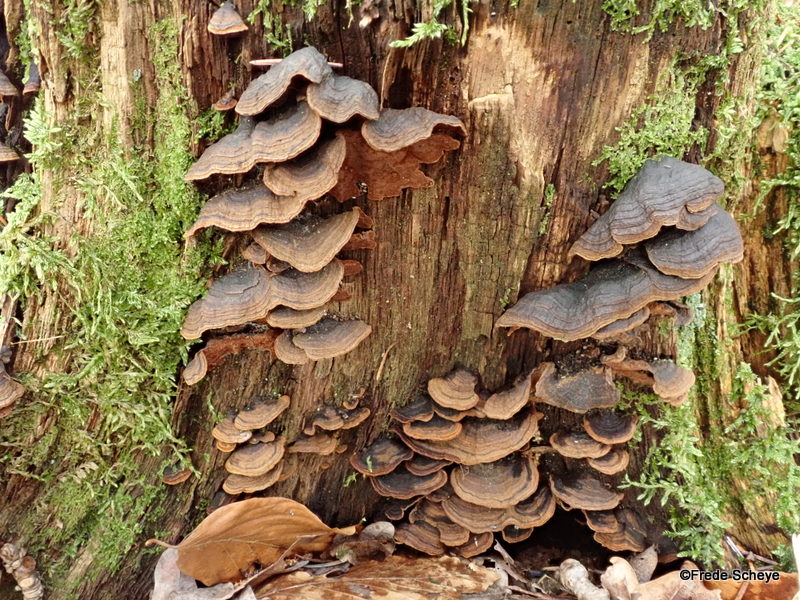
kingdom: Fungi
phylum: Basidiomycota
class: Agaricomycetes
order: Hymenochaetales
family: Hymenochaetaceae
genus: Hymenochaete
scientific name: Hymenochaete rubiginosa
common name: stiv ruslædersvamp
